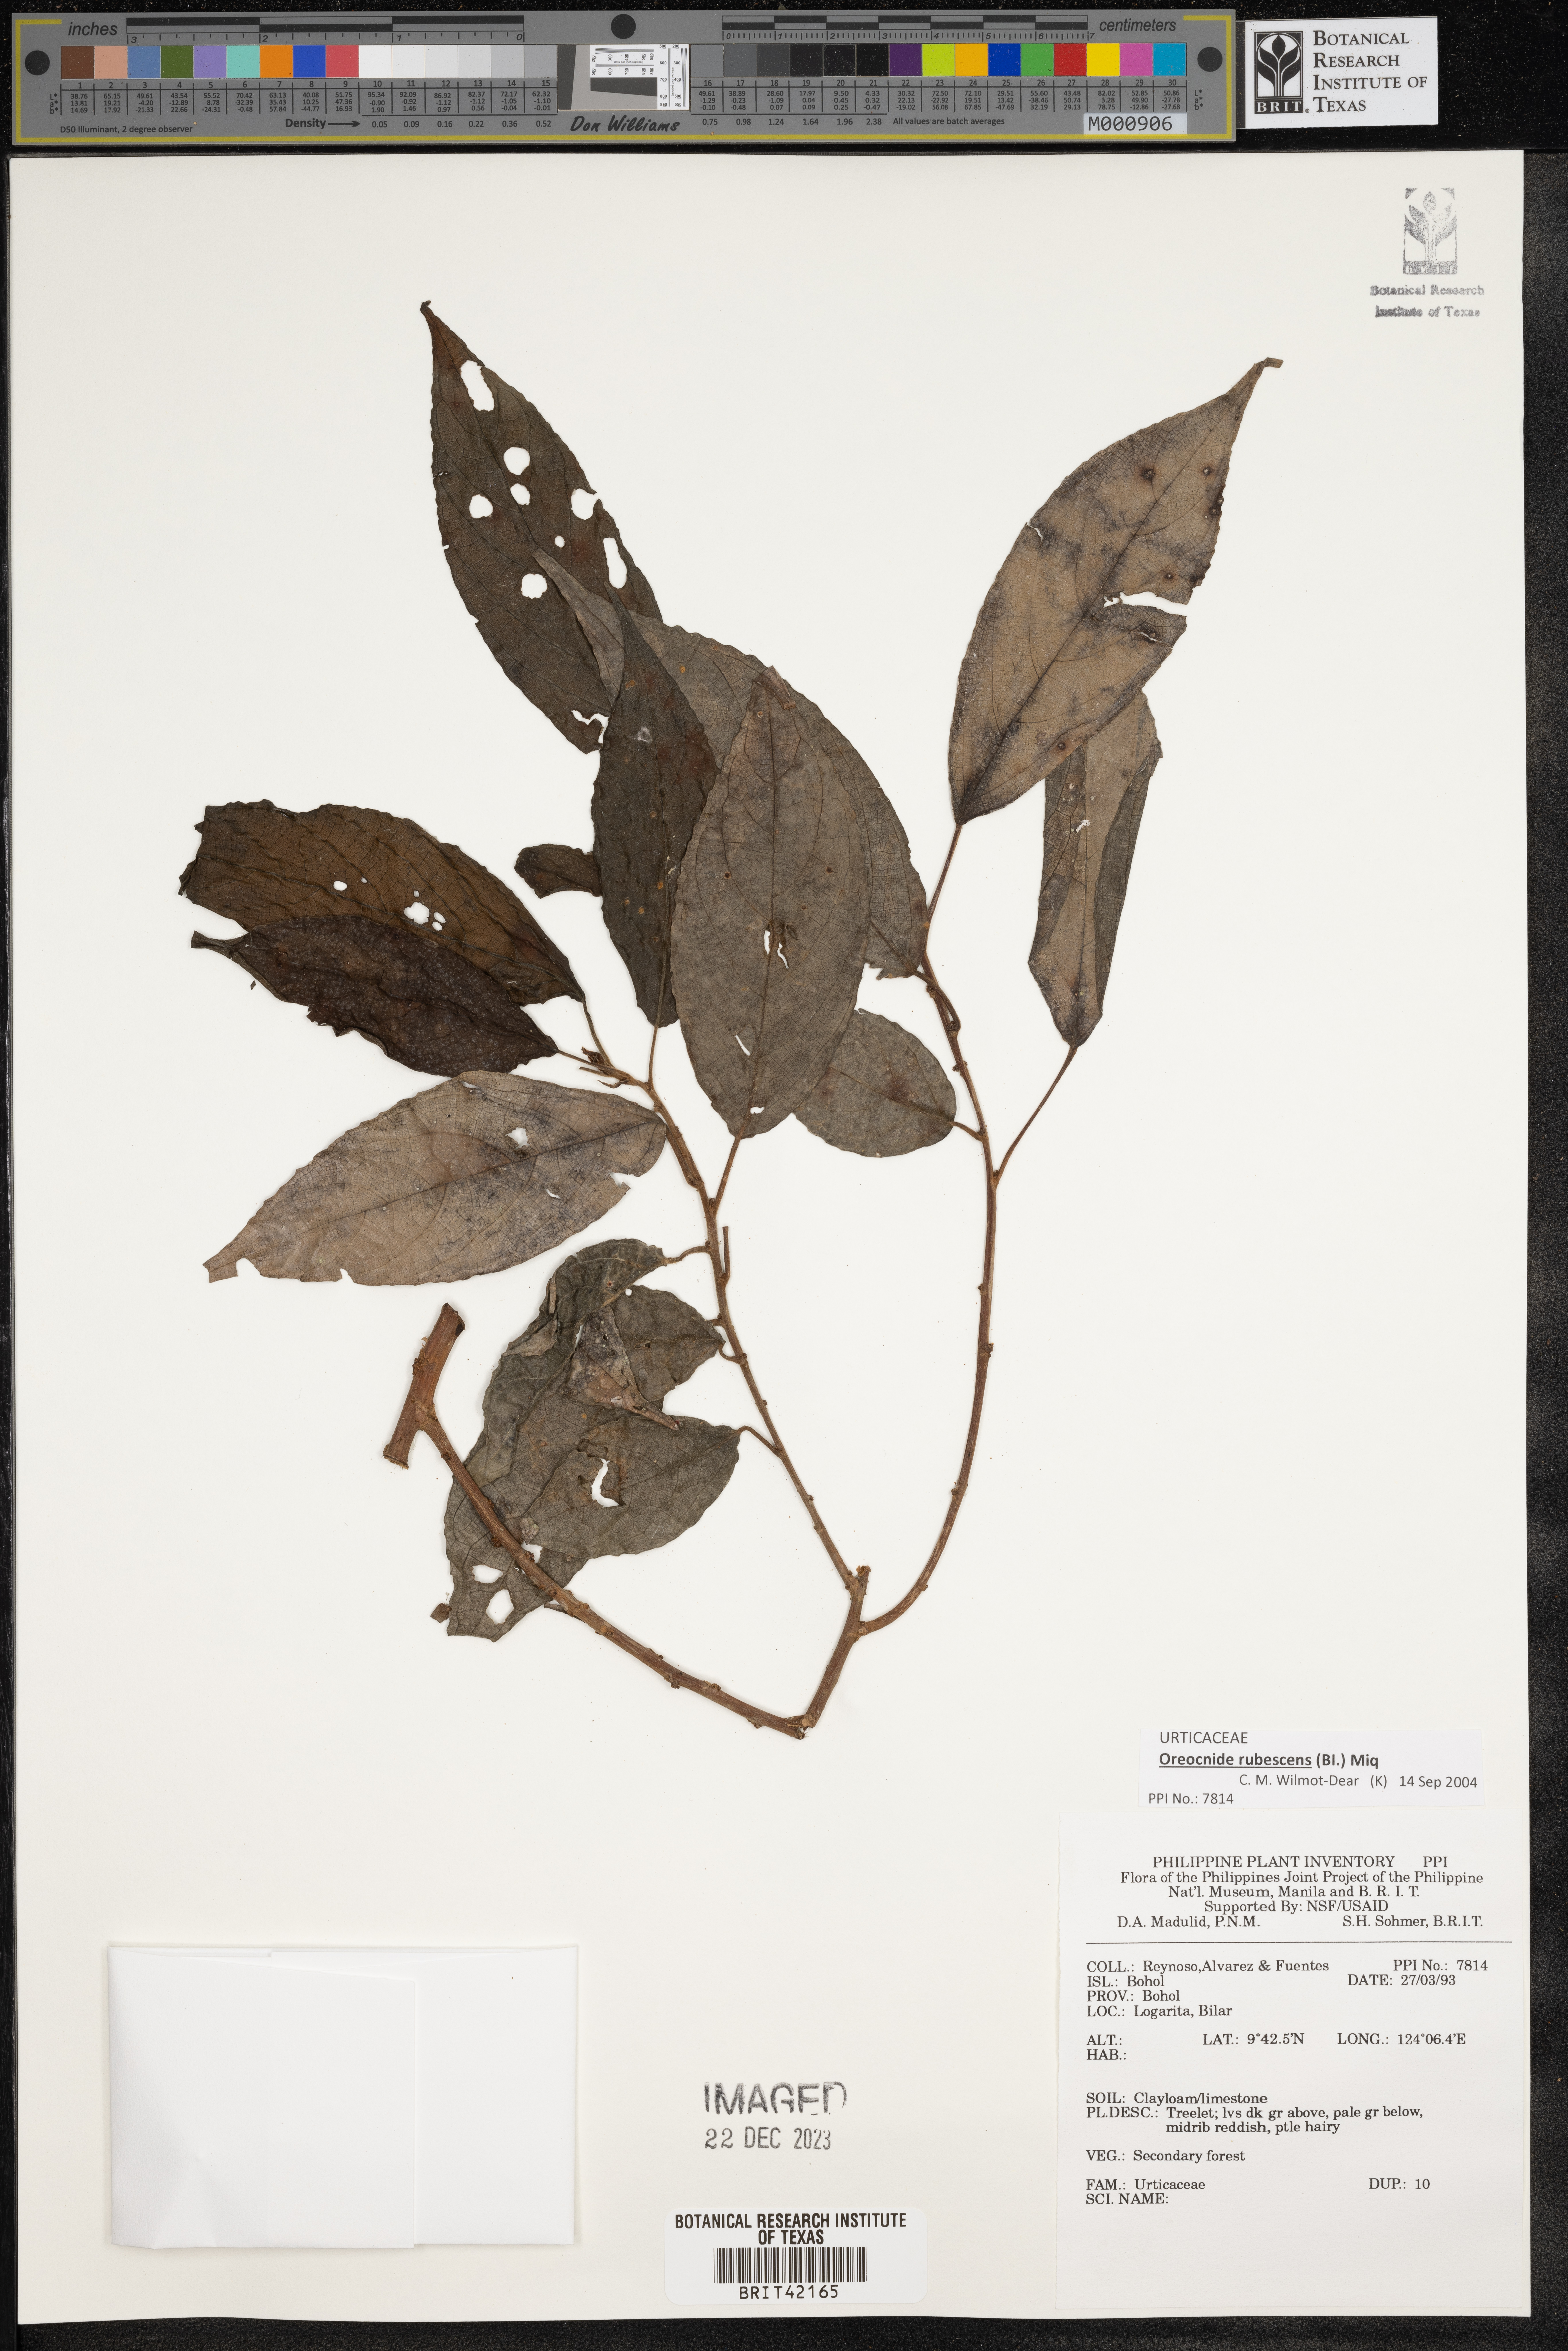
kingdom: Plantae
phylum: Tracheophyta
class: Magnoliopsida
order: Rosales
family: Urticaceae
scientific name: Urticaceae
